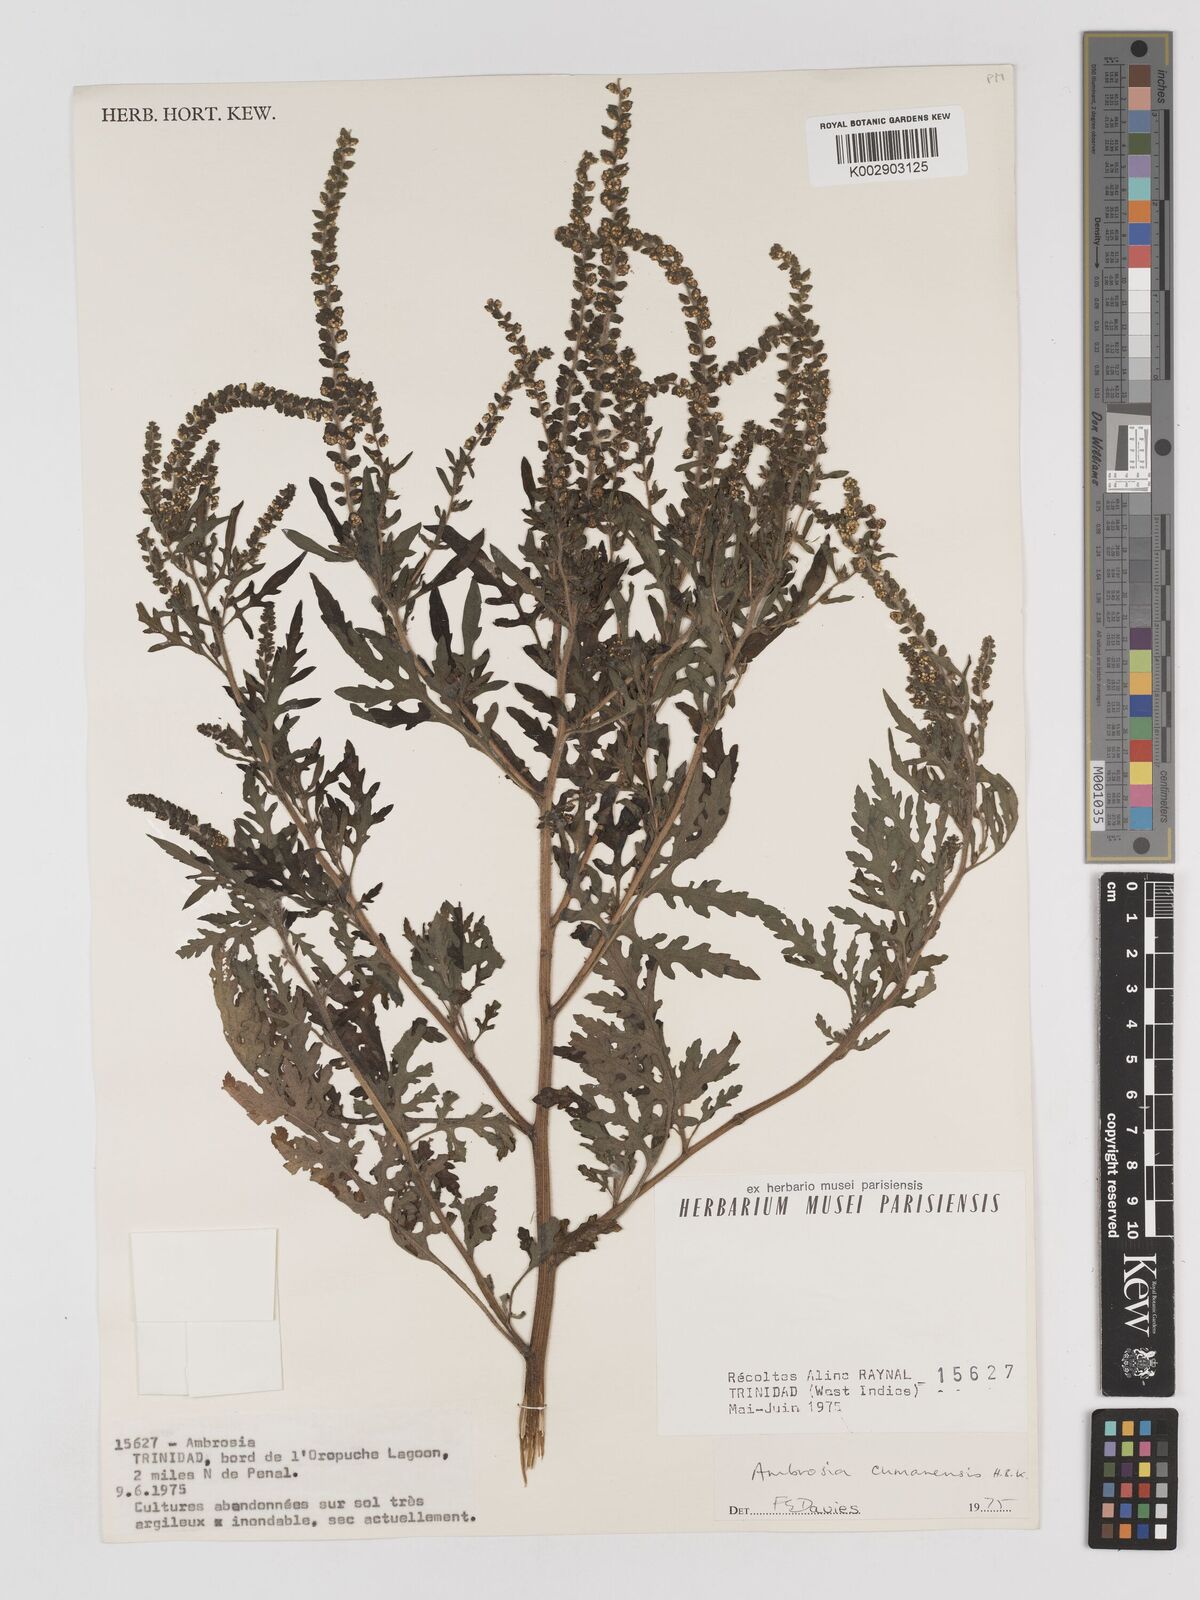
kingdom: Plantae
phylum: Tracheophyta
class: Magnoliopsida
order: Asterales
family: Asteraceae
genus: Ambrosia
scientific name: Ambrosia cumanensis
